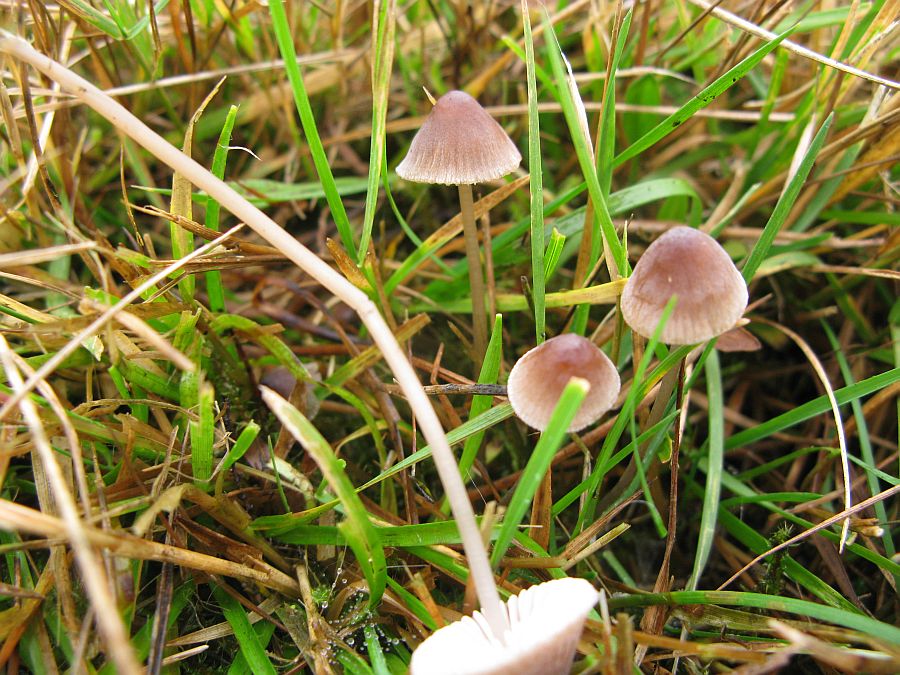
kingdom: Fungi
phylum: Basidiomycota
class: Agaricomycetes
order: Agaricales
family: Mycenaceae
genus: Mycena
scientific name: Mycena filopes
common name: jod-huesvamp
